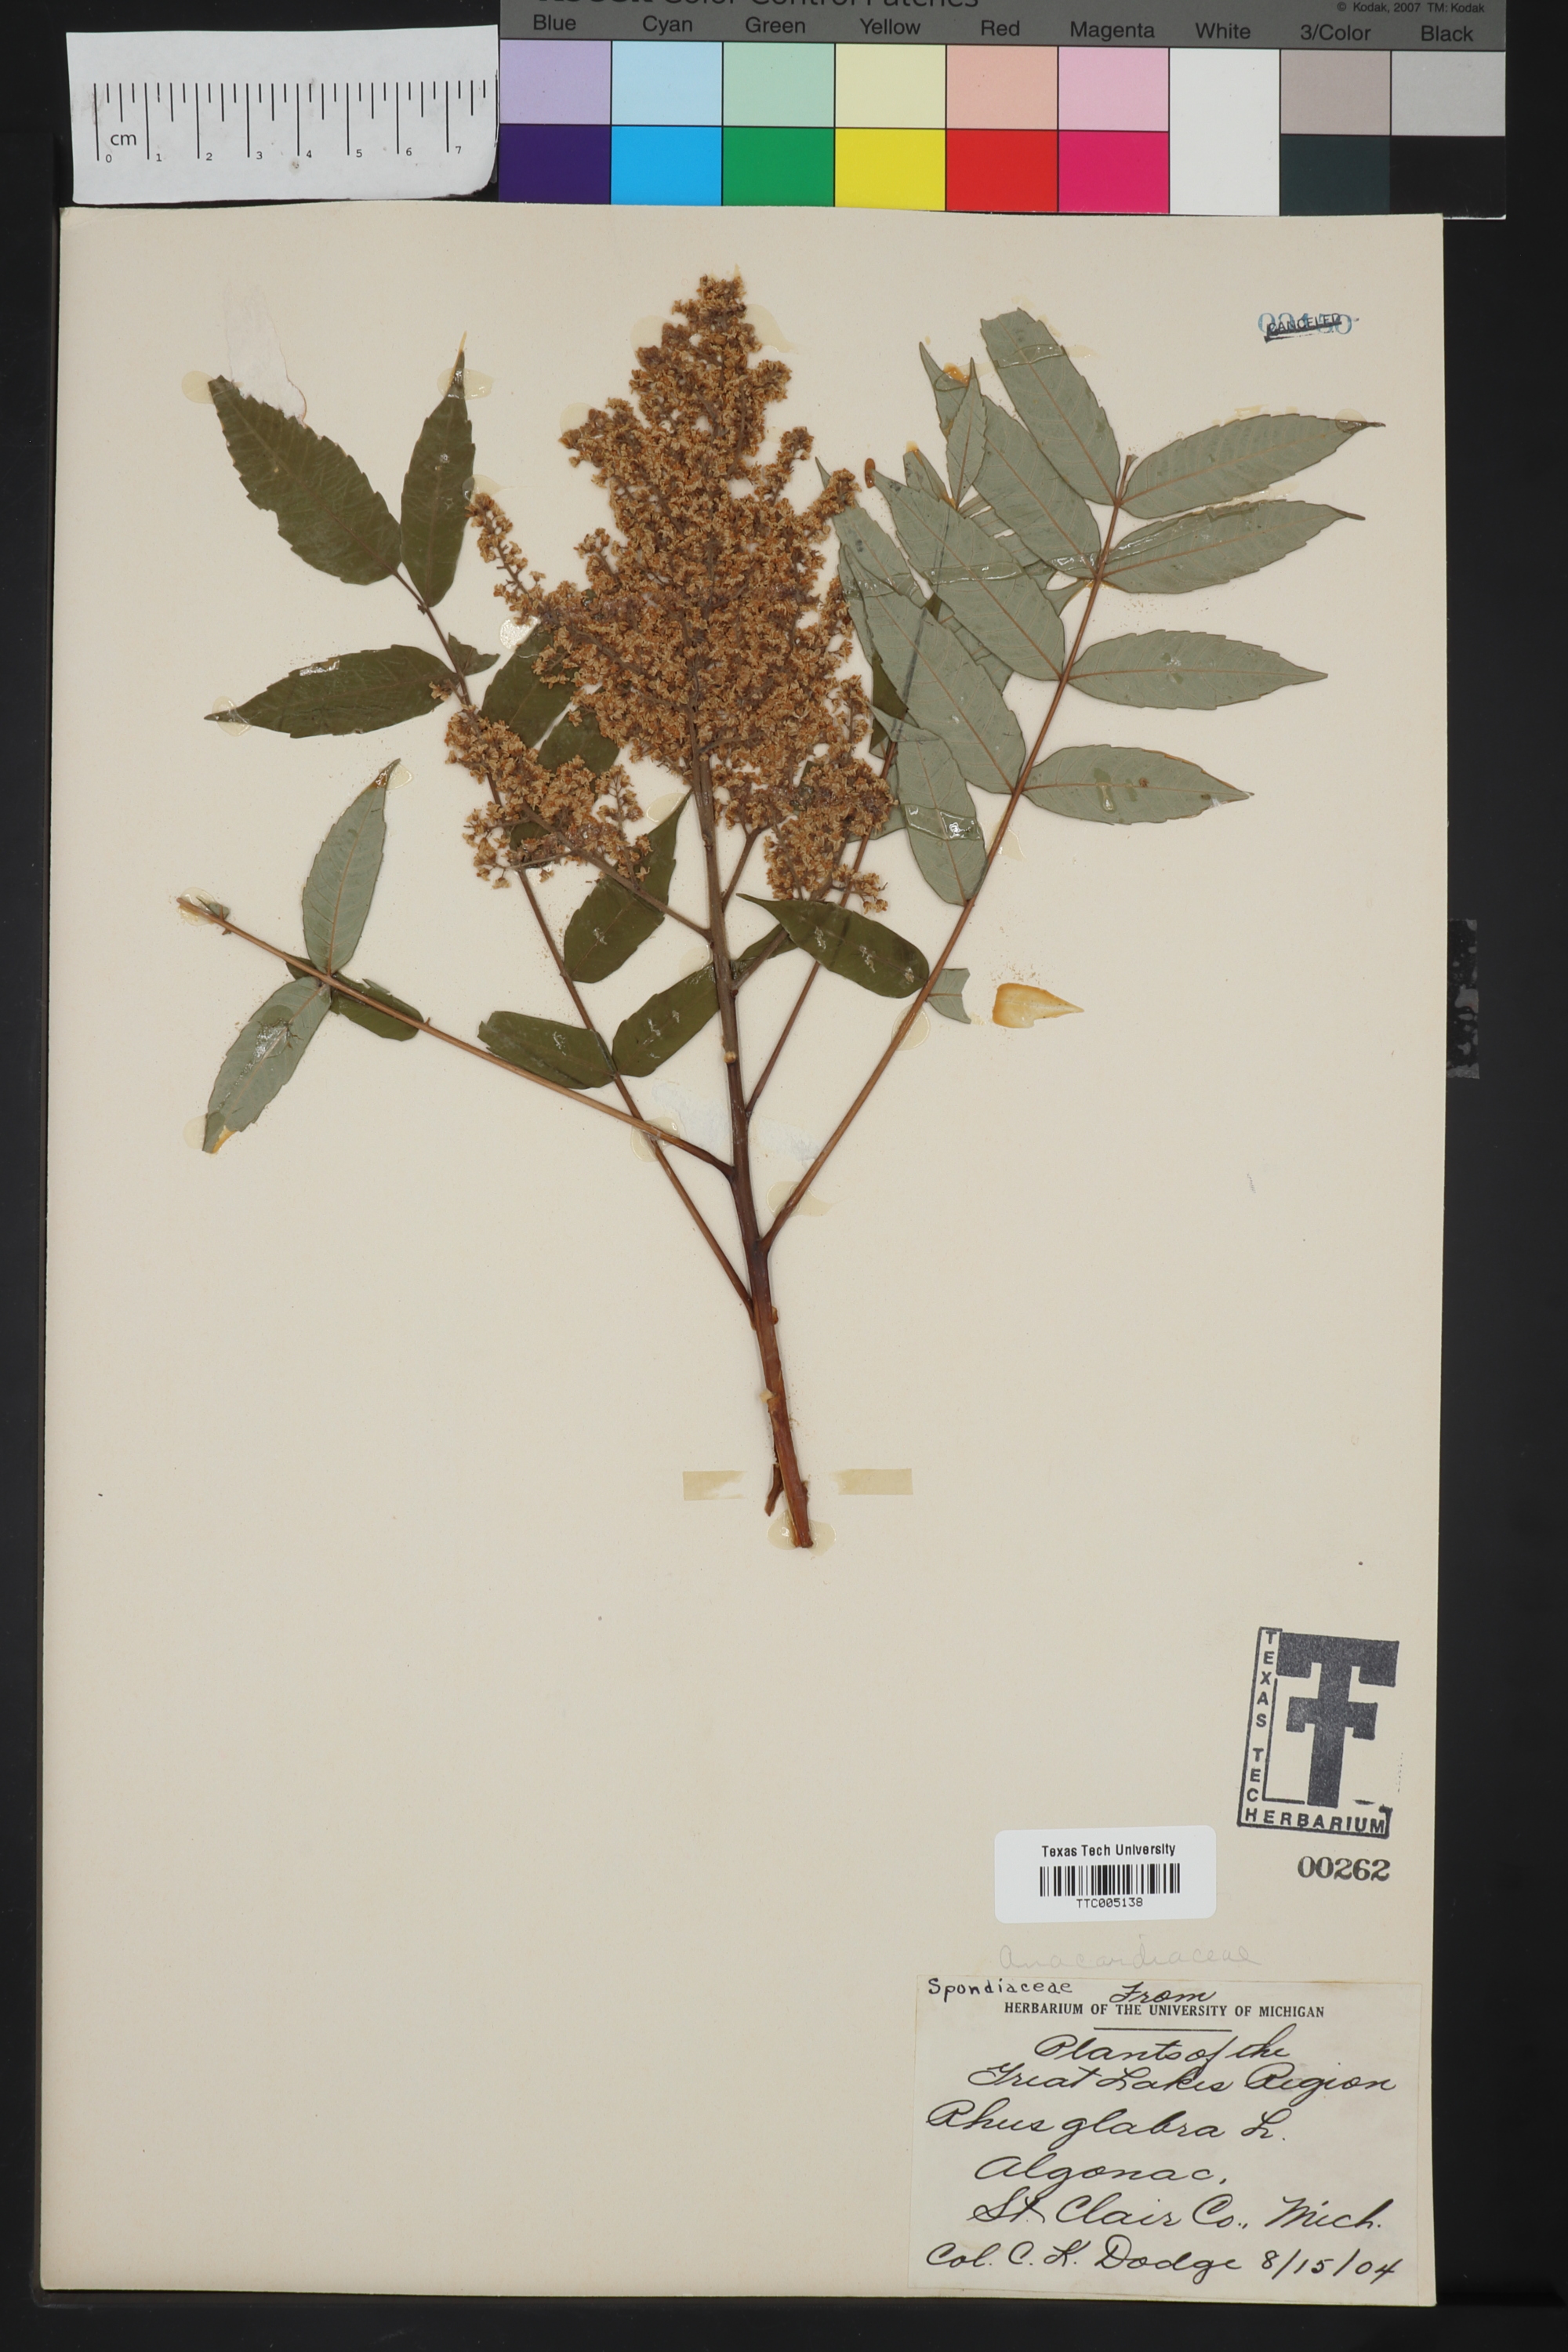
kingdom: Plantae
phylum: Tracheophyta
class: Magnoliopsida
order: Sapindales
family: Anacardiaceae
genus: Rhus
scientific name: Rhus glabra
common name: Scarlet sumac
